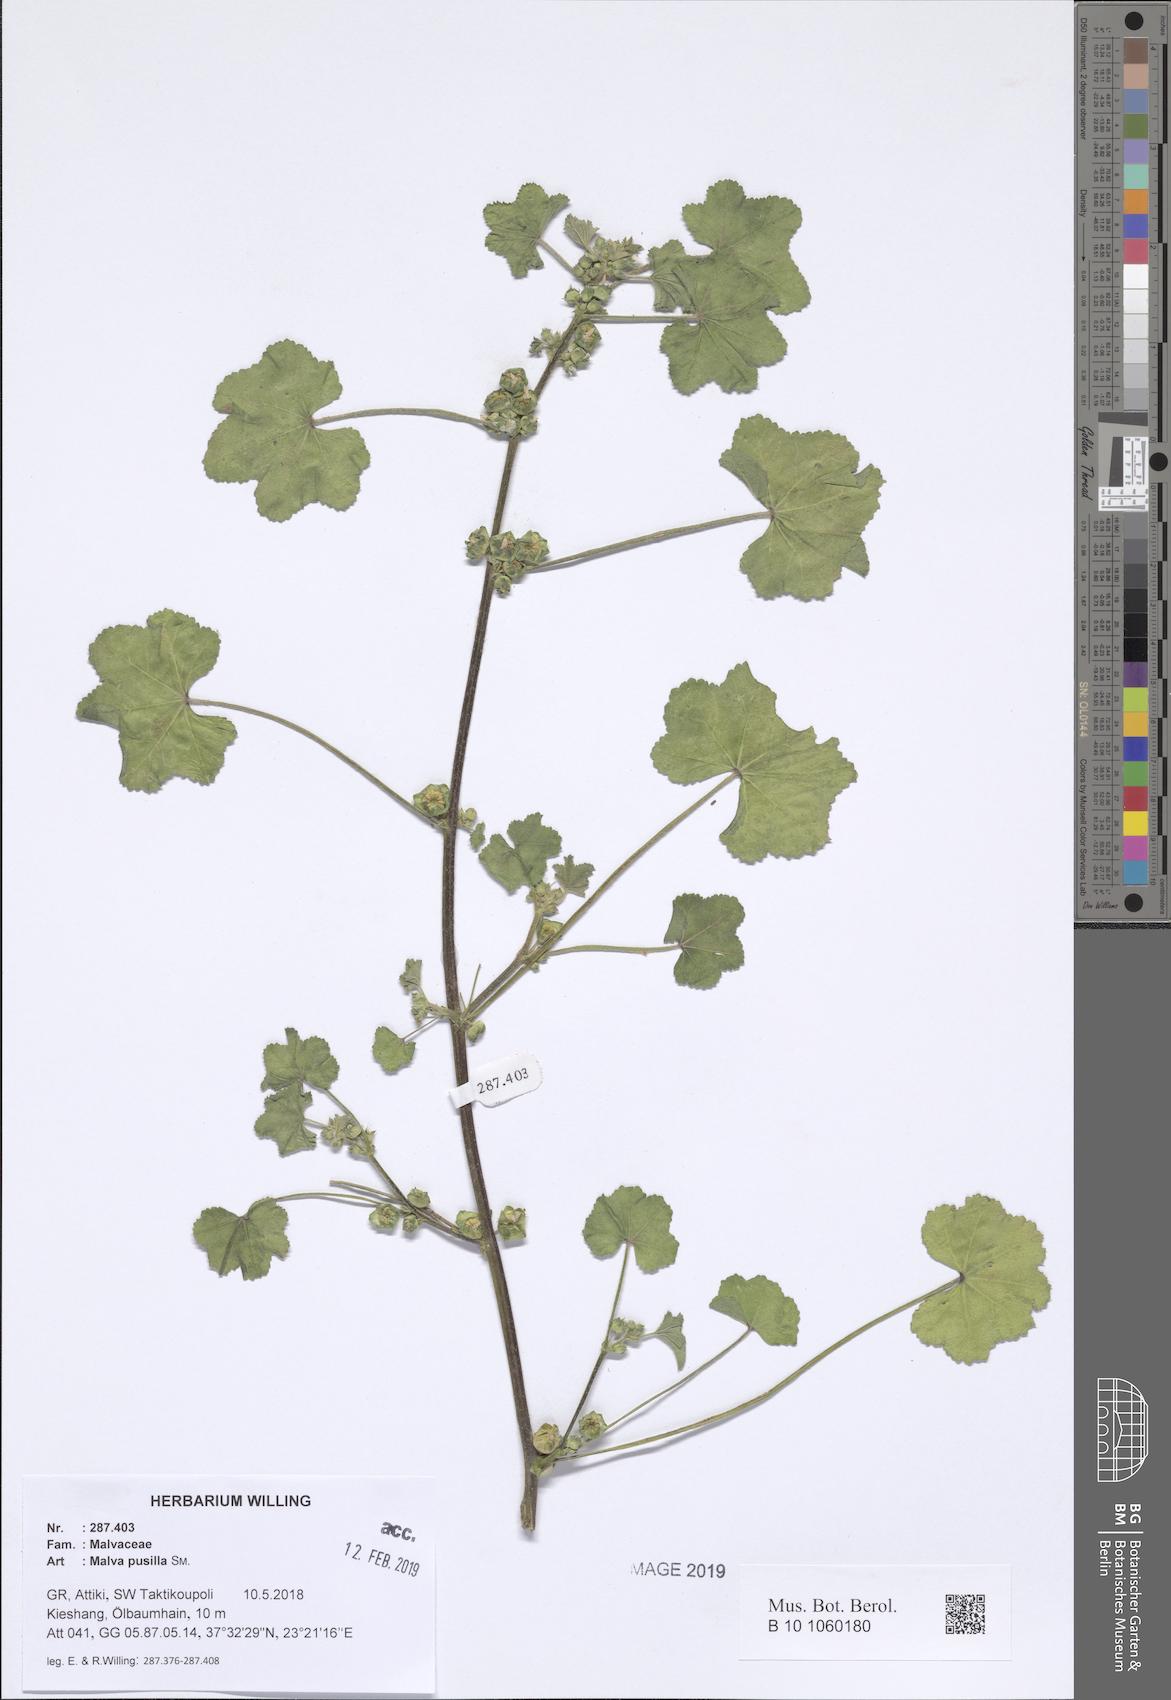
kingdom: Plantae
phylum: Tracheophyta
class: Magnoliopsida
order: Malvales
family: Malvaceae
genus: Malva
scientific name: Malva parviflora
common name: Least mallow
